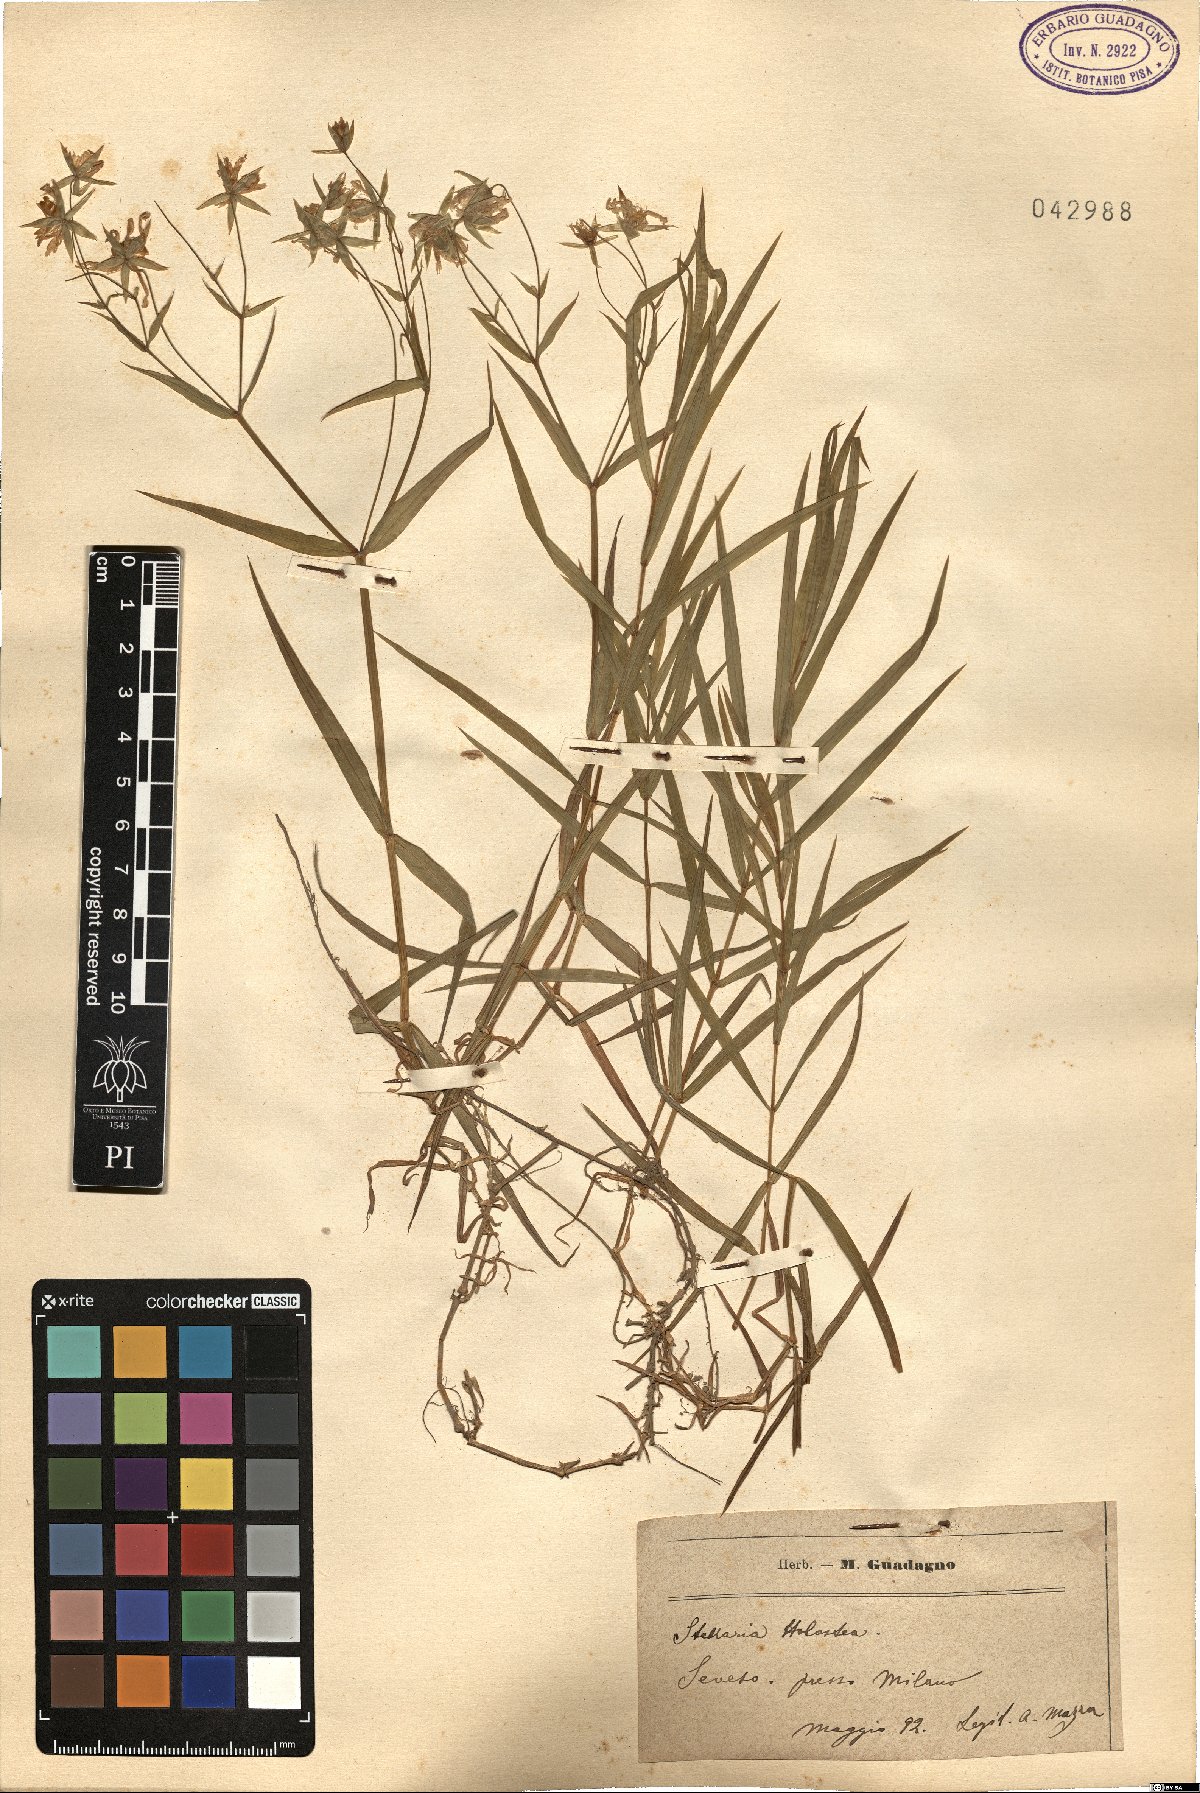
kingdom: Plantae
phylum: Tracheophyta
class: Magnoliopsida
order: Caryophyllales
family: Caryophyllaceae
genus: Rabelera
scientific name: Rabelera holostea
